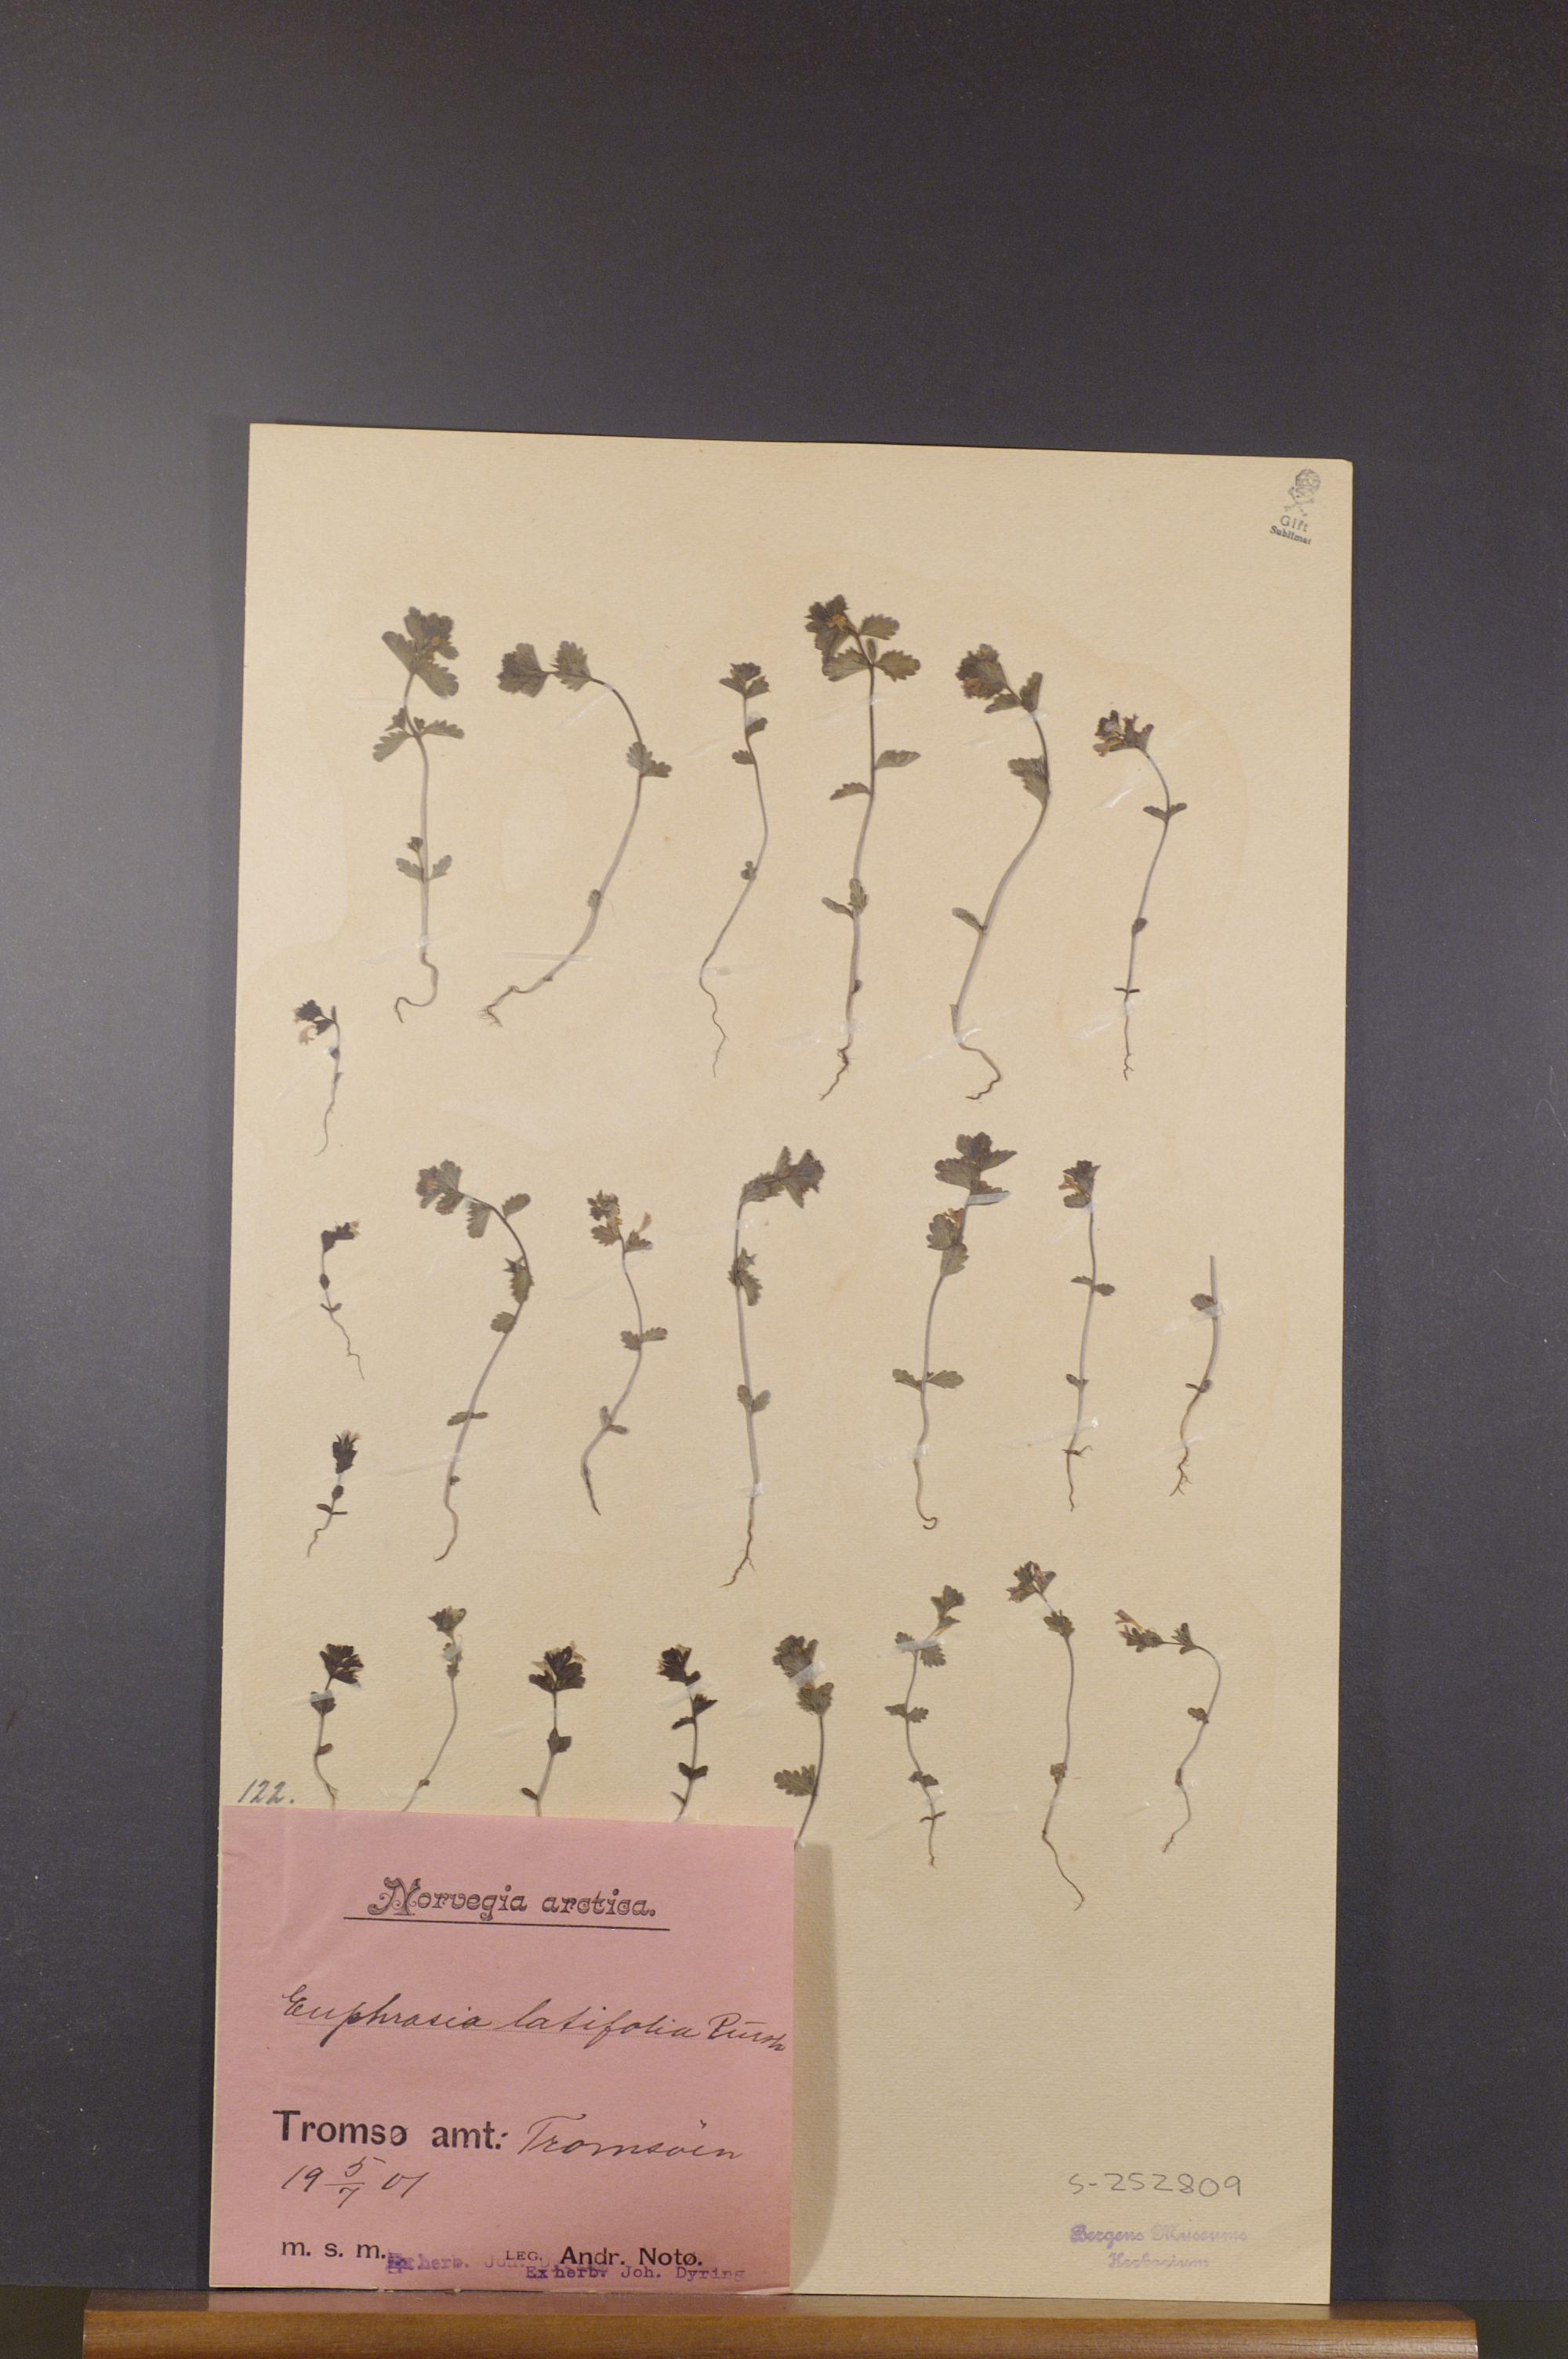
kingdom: Plantae
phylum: Tracheophyta
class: Magnoliopsida
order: Lamiales
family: Orobanchaceae
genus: Euphrasia
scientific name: Euphrasia wettsteinii
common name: Wettstein's eyebright
